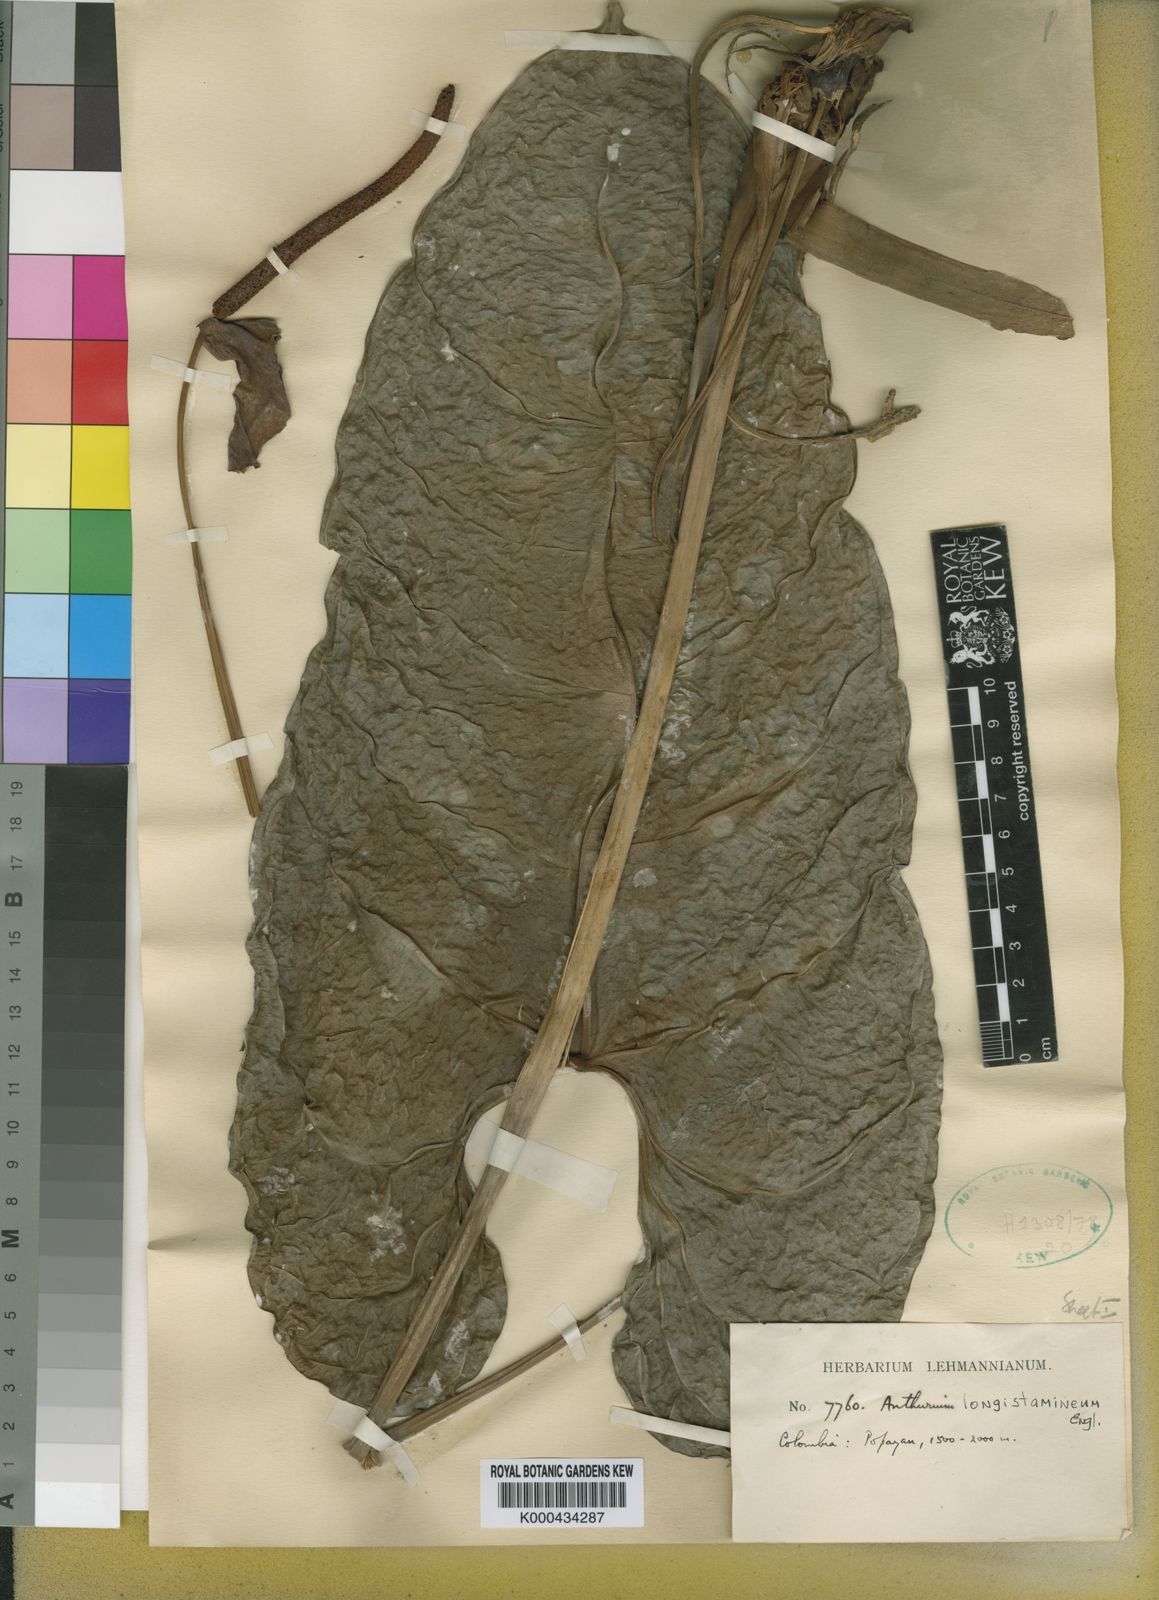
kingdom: Plantae
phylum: Tracheophyta
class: Liliopsida
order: Alismatales
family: Araceae
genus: Anthurium
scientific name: Anthurium longistamineum
